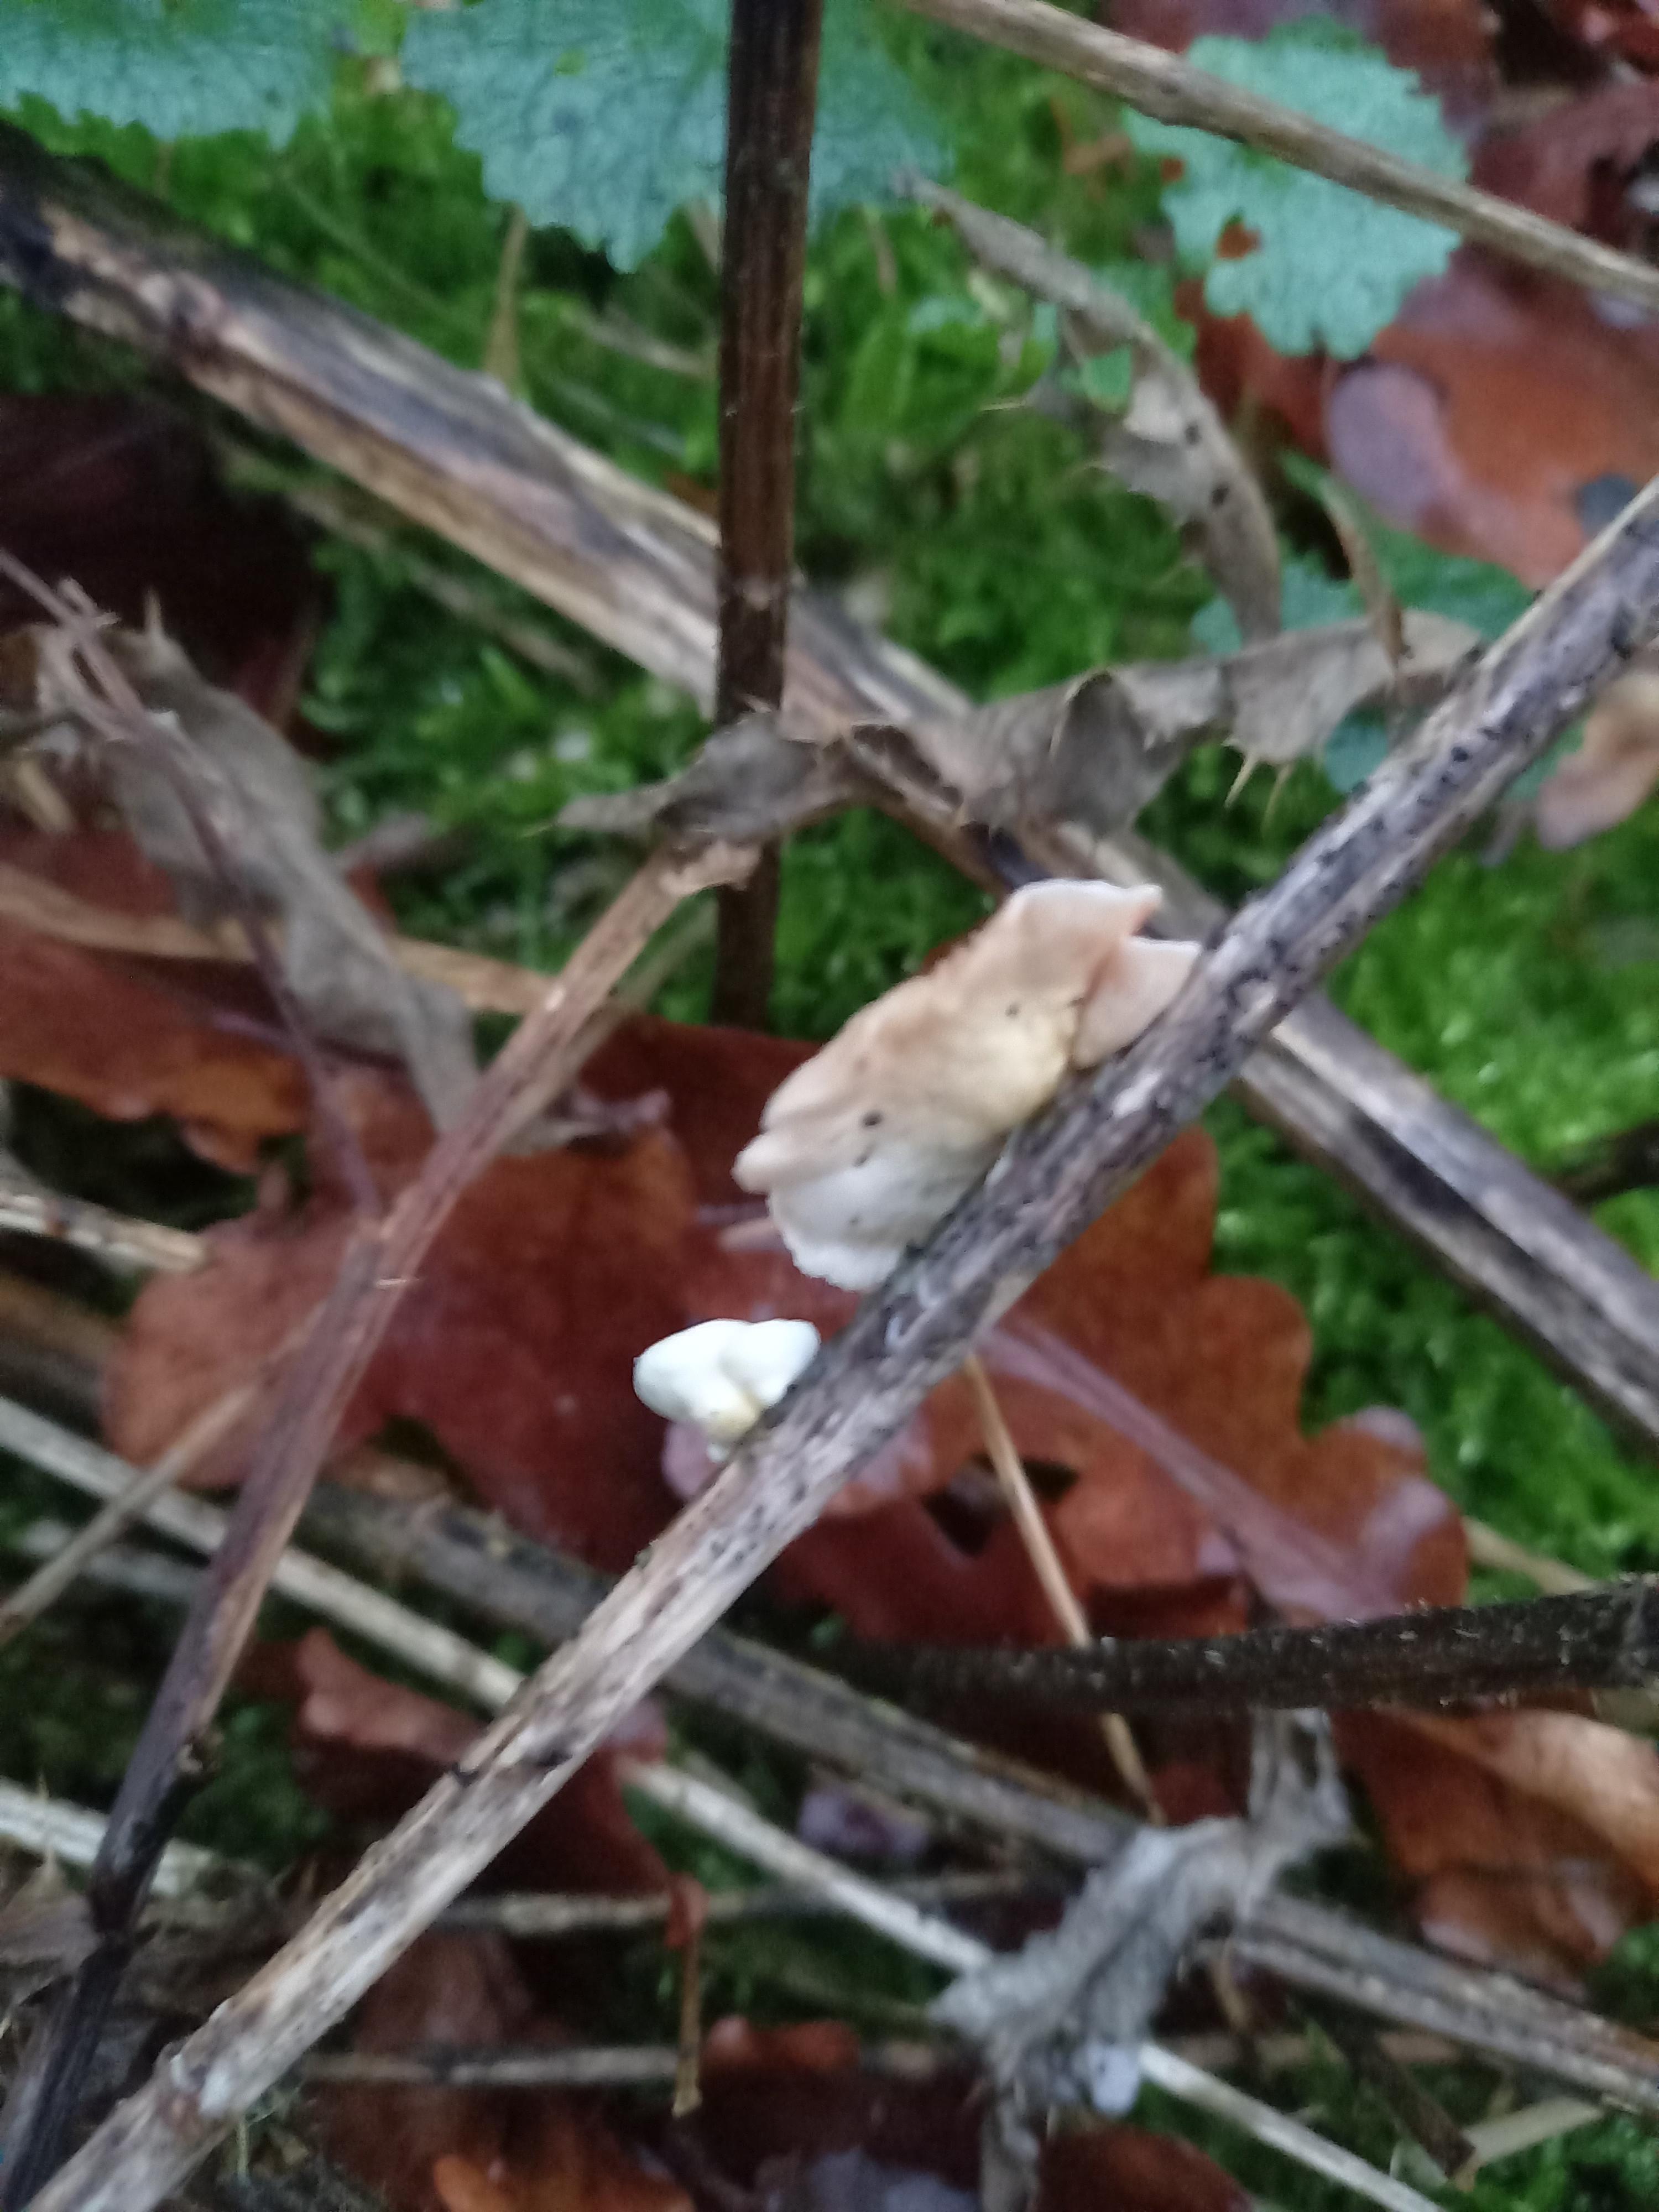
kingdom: Fungi
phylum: Basidiomycota
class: Agaricomycetes
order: Agaricales
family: Crepidotaceae
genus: Crepidotus
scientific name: Crepidotus luteolus
